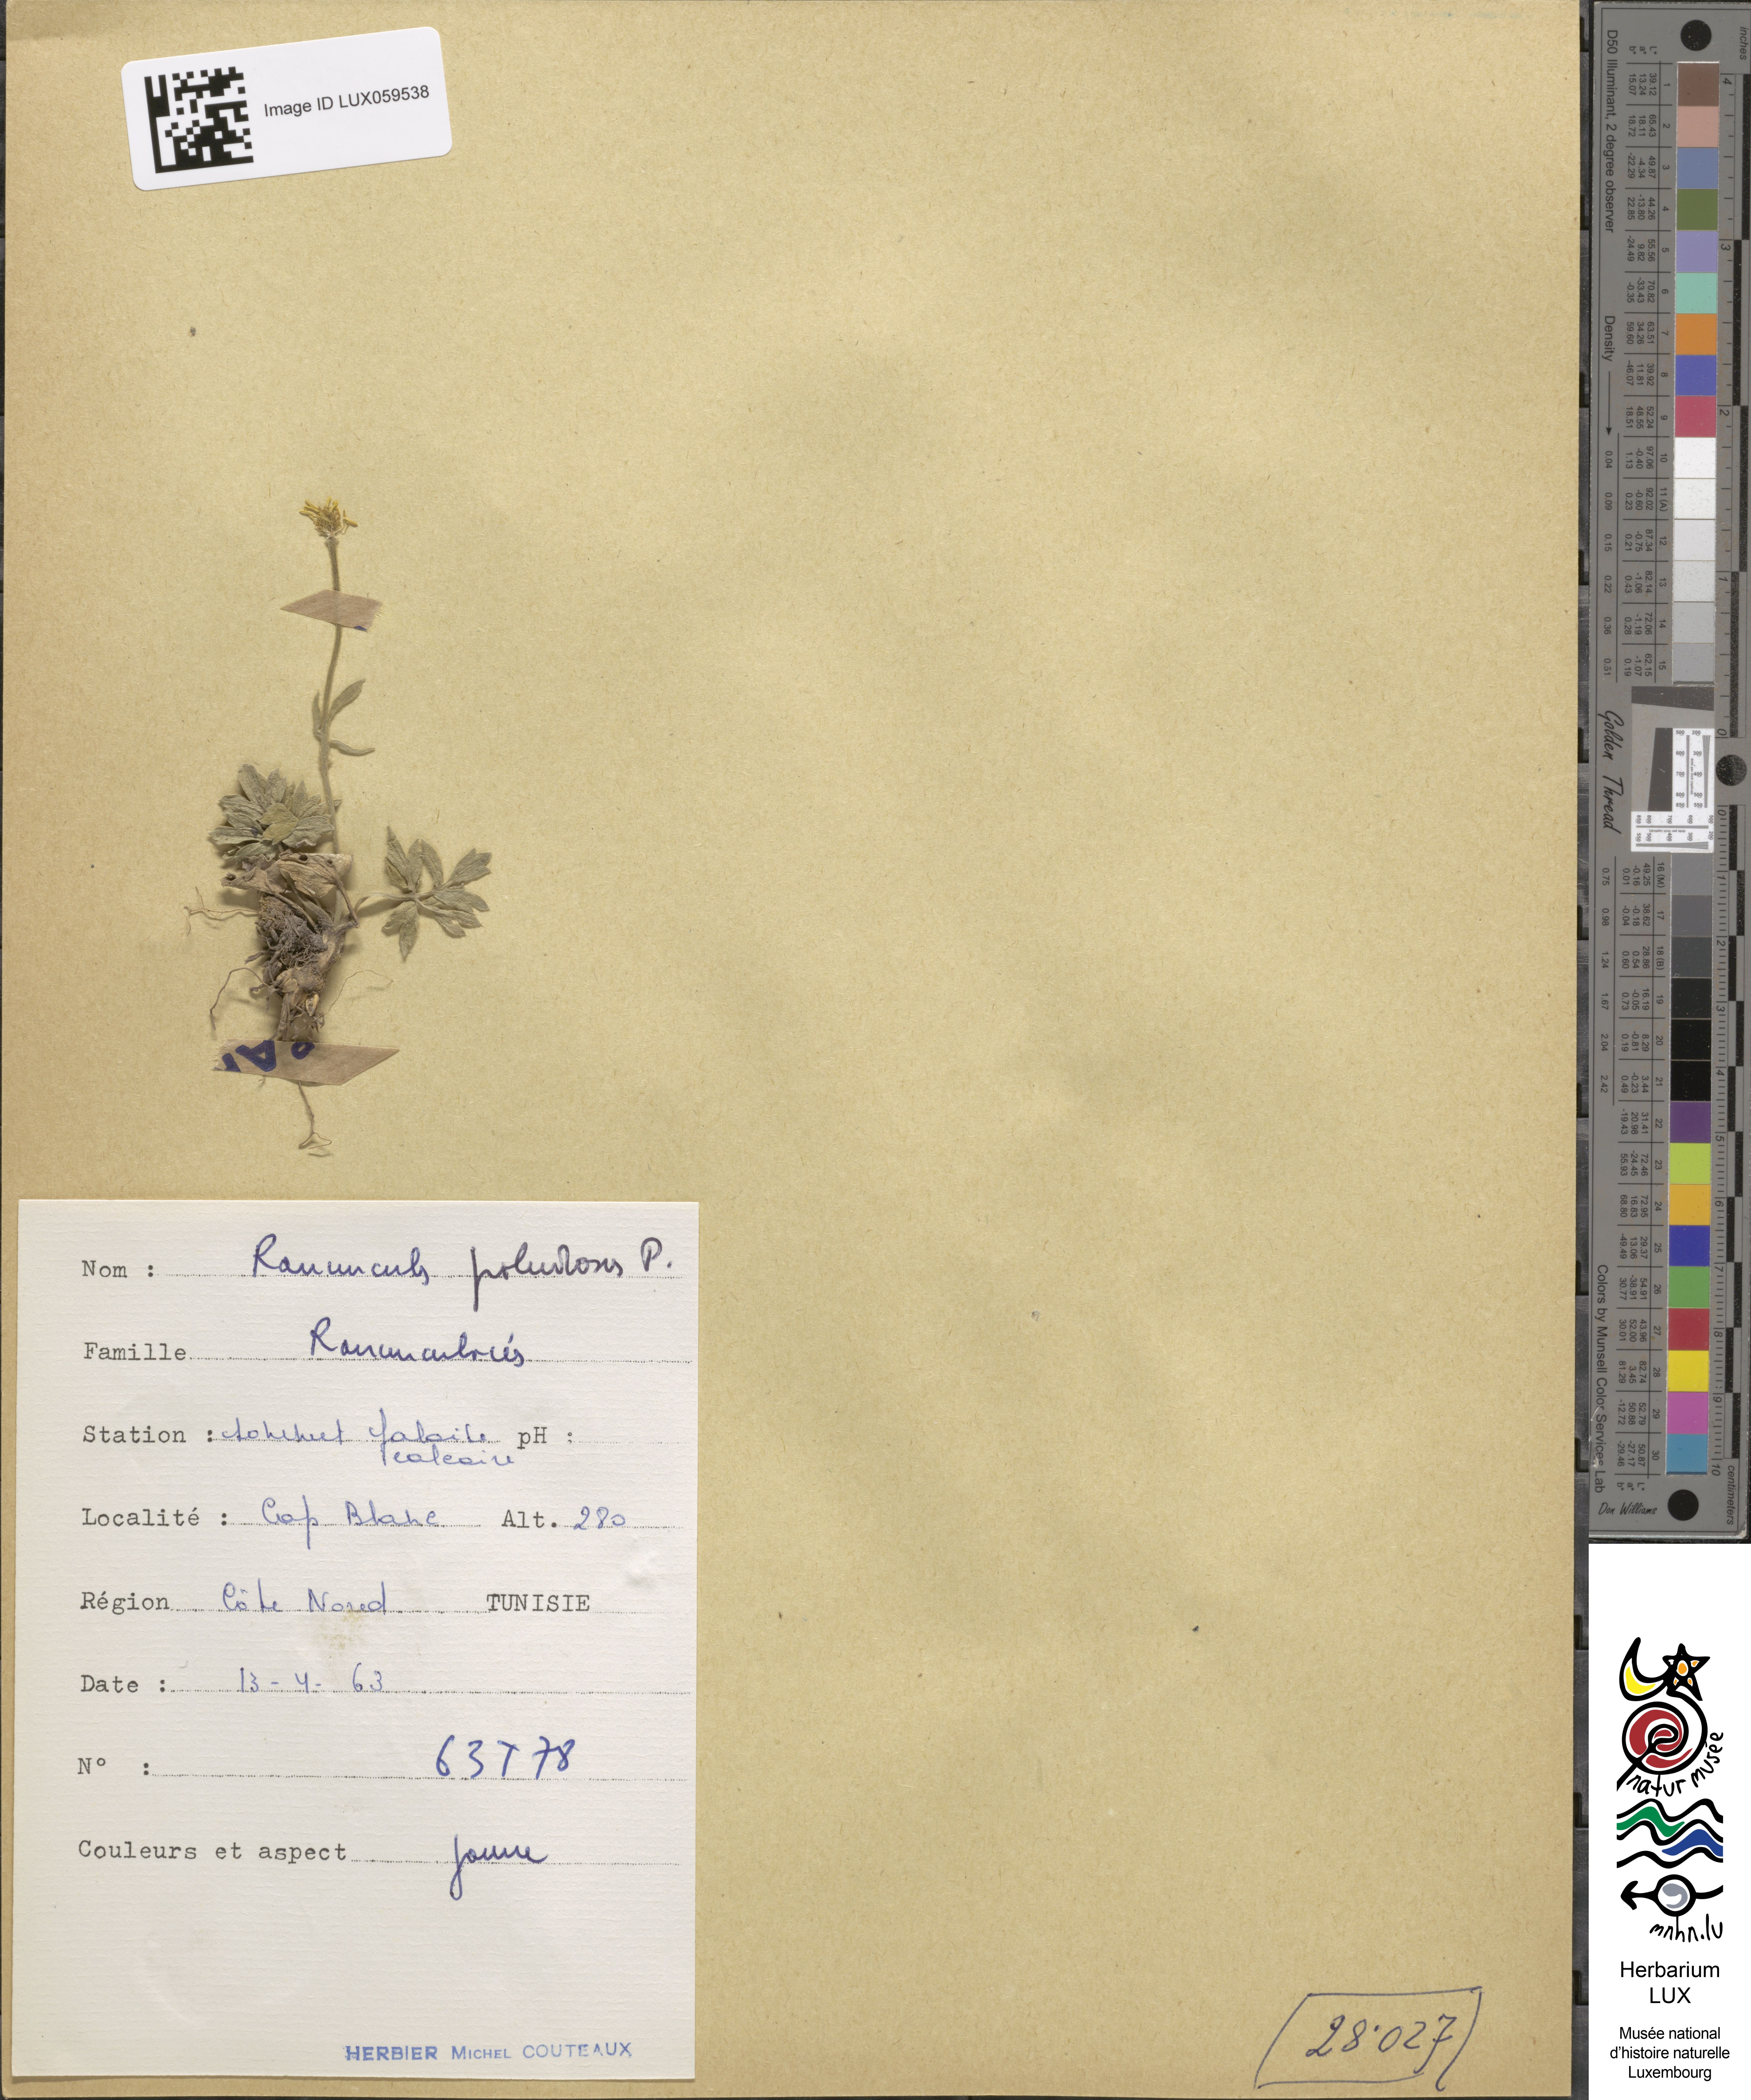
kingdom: Plantae
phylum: Tracheophyta
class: Magnoliopsida
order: Ranunculales
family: Ranunculaceae
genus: Ranunculus
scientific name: Ranunculus paludosus
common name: Jersey buttercup
